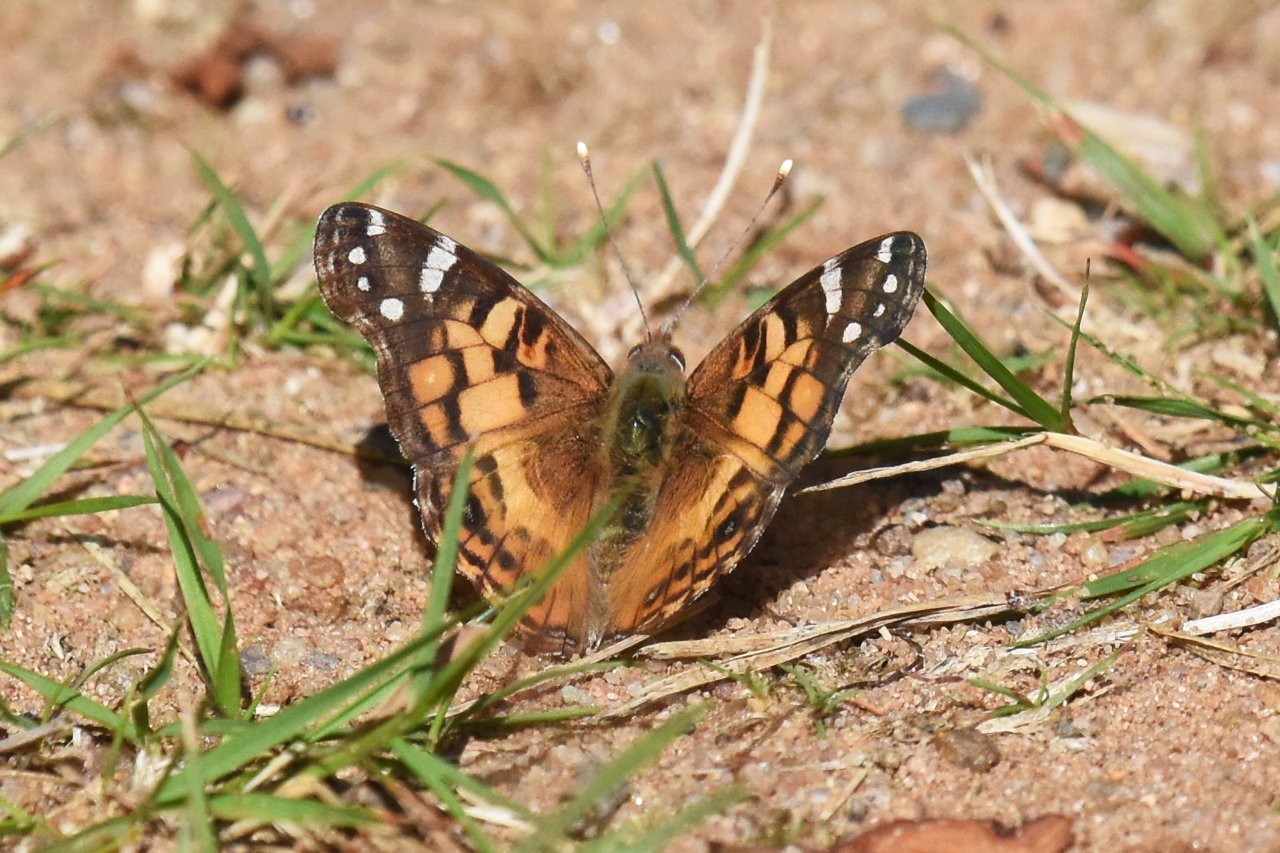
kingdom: Animalia
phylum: Arthropoda
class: Insecta
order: Lepidoptera
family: Nymphalidae
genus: Vanessa
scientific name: Vanessa virginiensis
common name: American Lady
